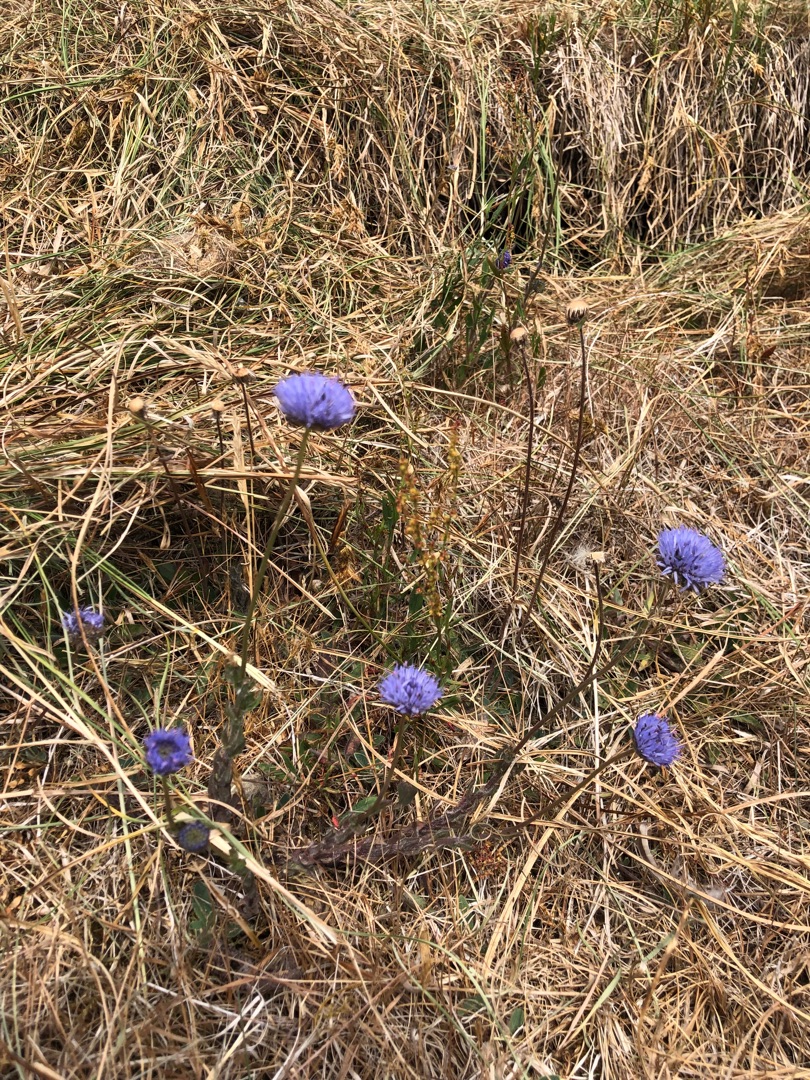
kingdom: Plantae
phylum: Tracheophyta
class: Magnoliopsida
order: Asterales
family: Campanulaceae
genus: Jasione
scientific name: Jasione montana
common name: Blåmunke
